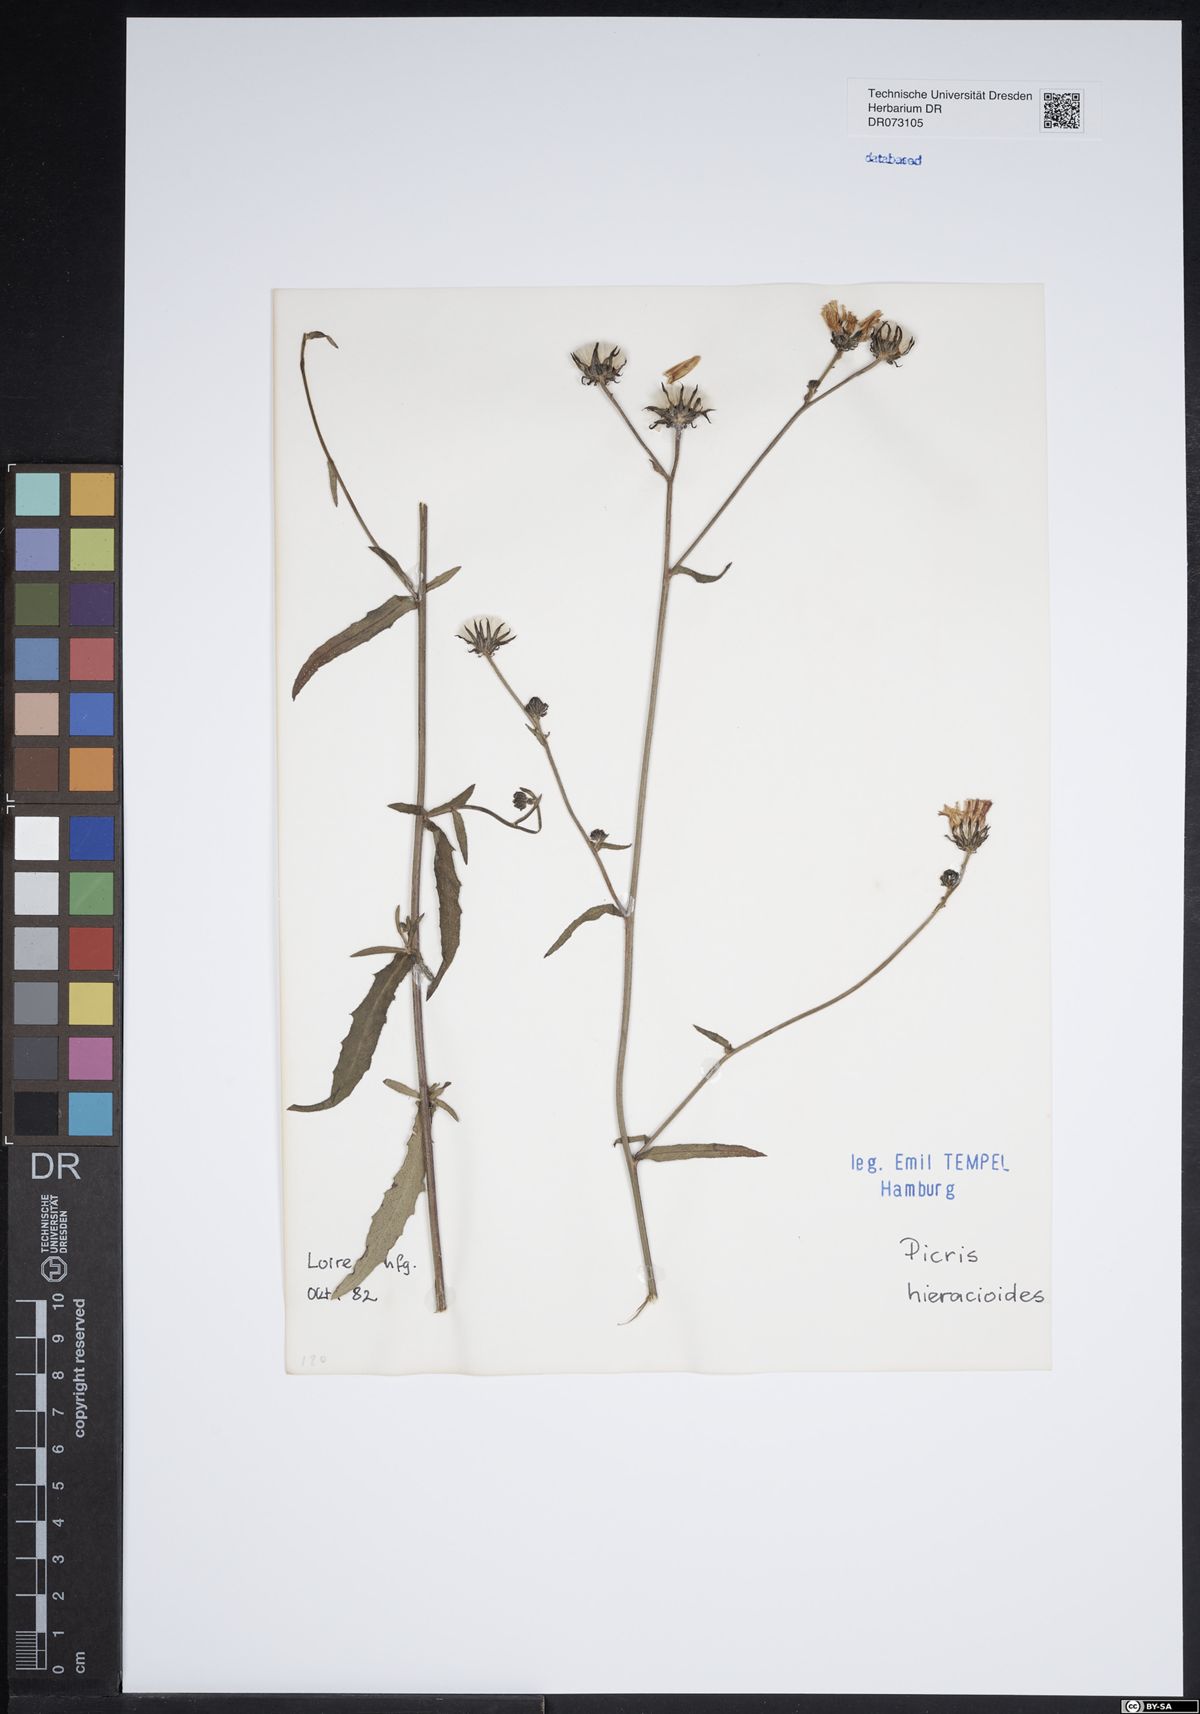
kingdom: Plantae
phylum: Tracheophyta
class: Magnoliopsida
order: Asterales
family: Asteraceae
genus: Picris
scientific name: Picris hieracioides
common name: Hawkweed oxtongue
